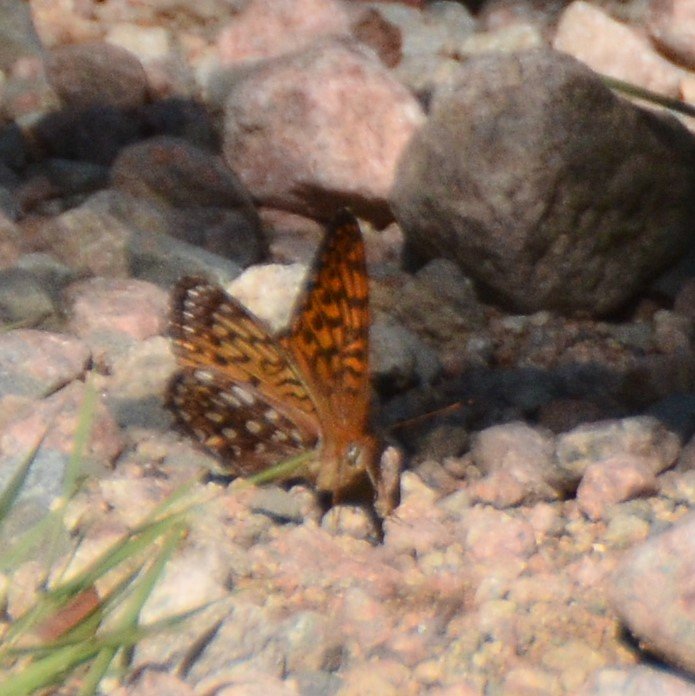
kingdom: Animalia
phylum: Arthropoda
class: Insecta
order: Lepidoptera
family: Nymphalidae
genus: Speyeria
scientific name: Speyeria atlantis
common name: Atlantis Fritillary
